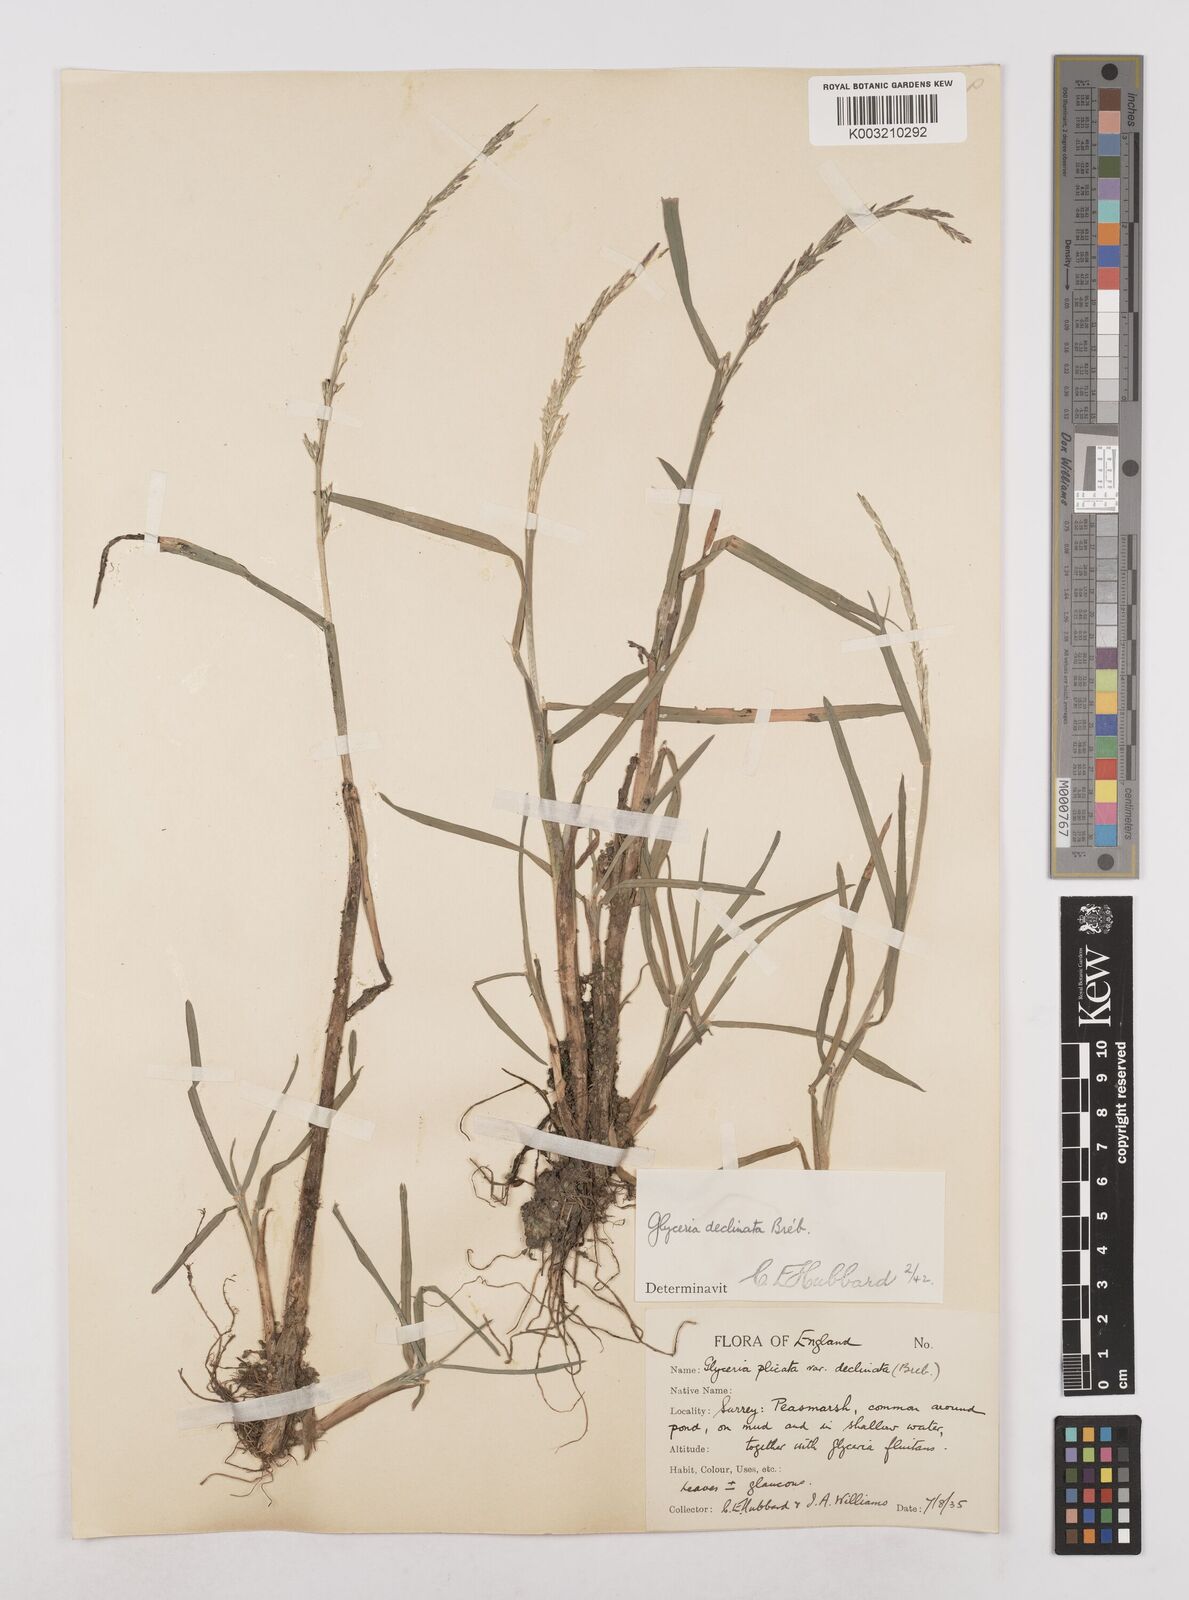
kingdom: Plantae
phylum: Tracheophyta
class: Liliopsida
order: Poales
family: Poaceae
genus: Glyceria
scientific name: Glyceria declinata
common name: Small sweet-grass
